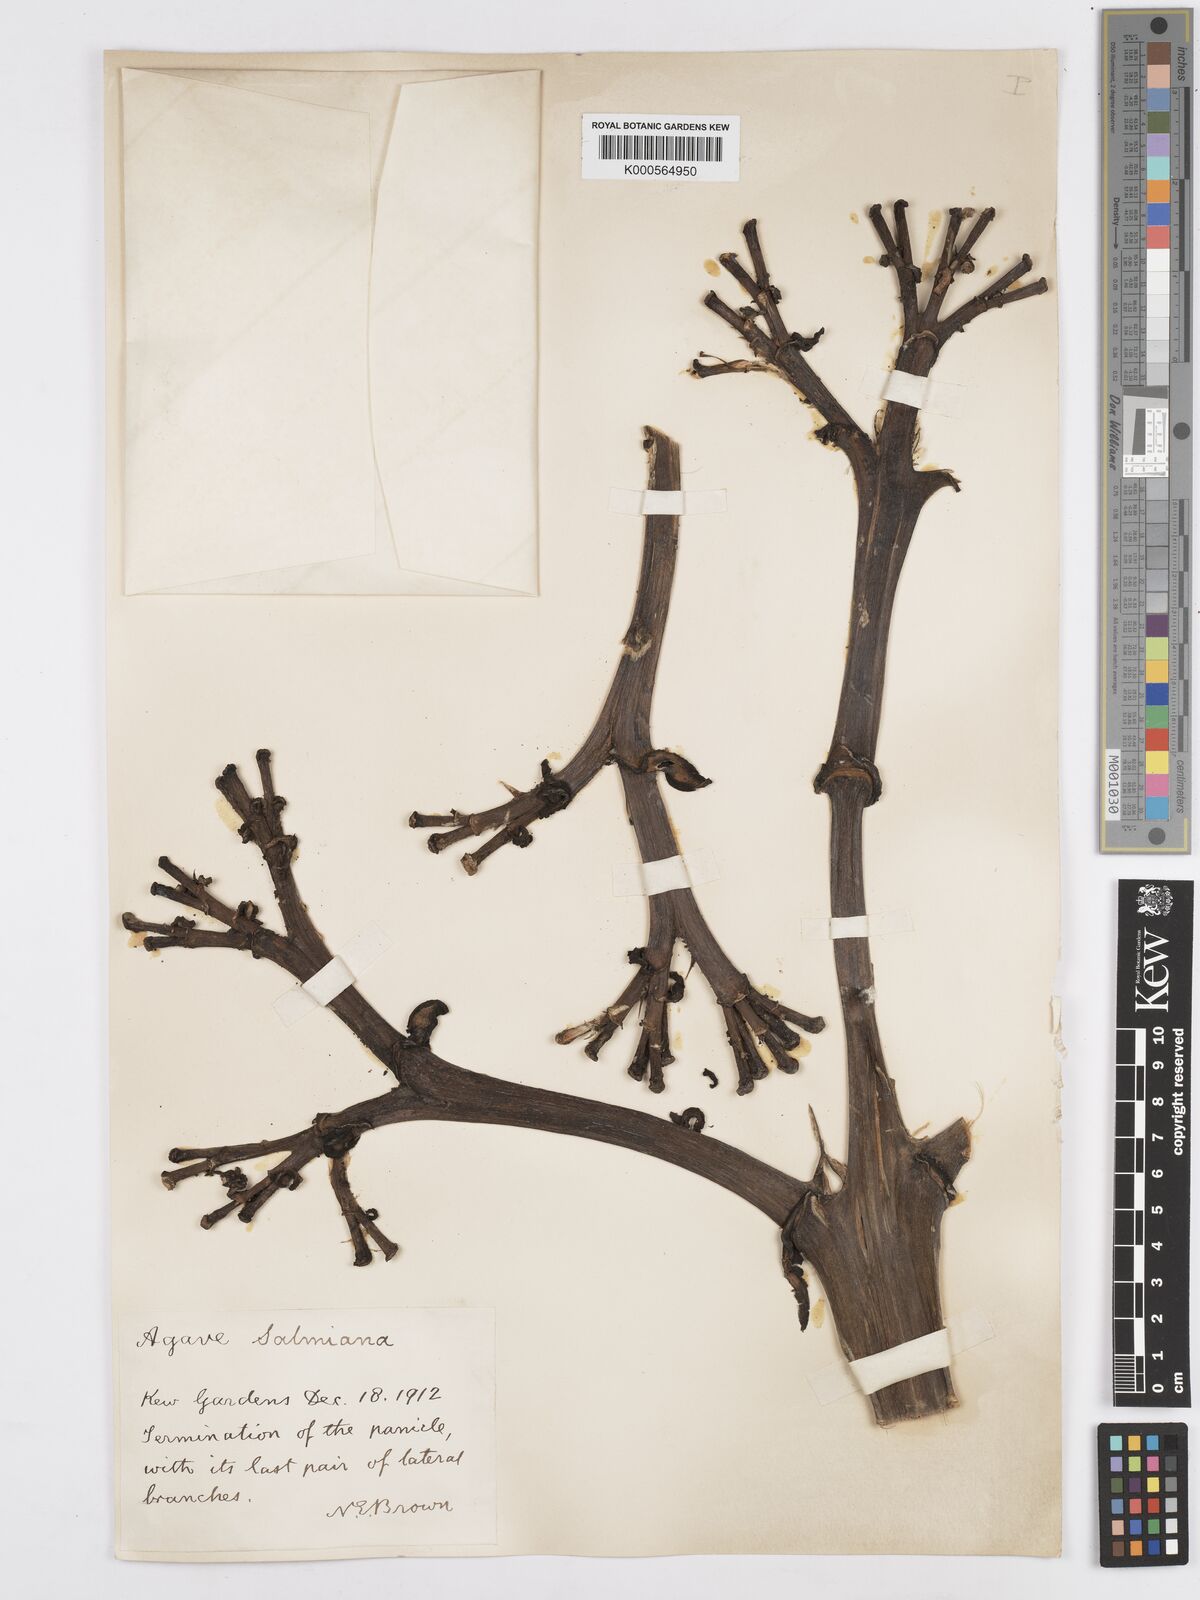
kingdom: Plantae
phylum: Tracheophyta
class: Liliopsida
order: Asparagales
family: Asparagaceae
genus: Agave
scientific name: Agave salmiana
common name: Pulque agave
